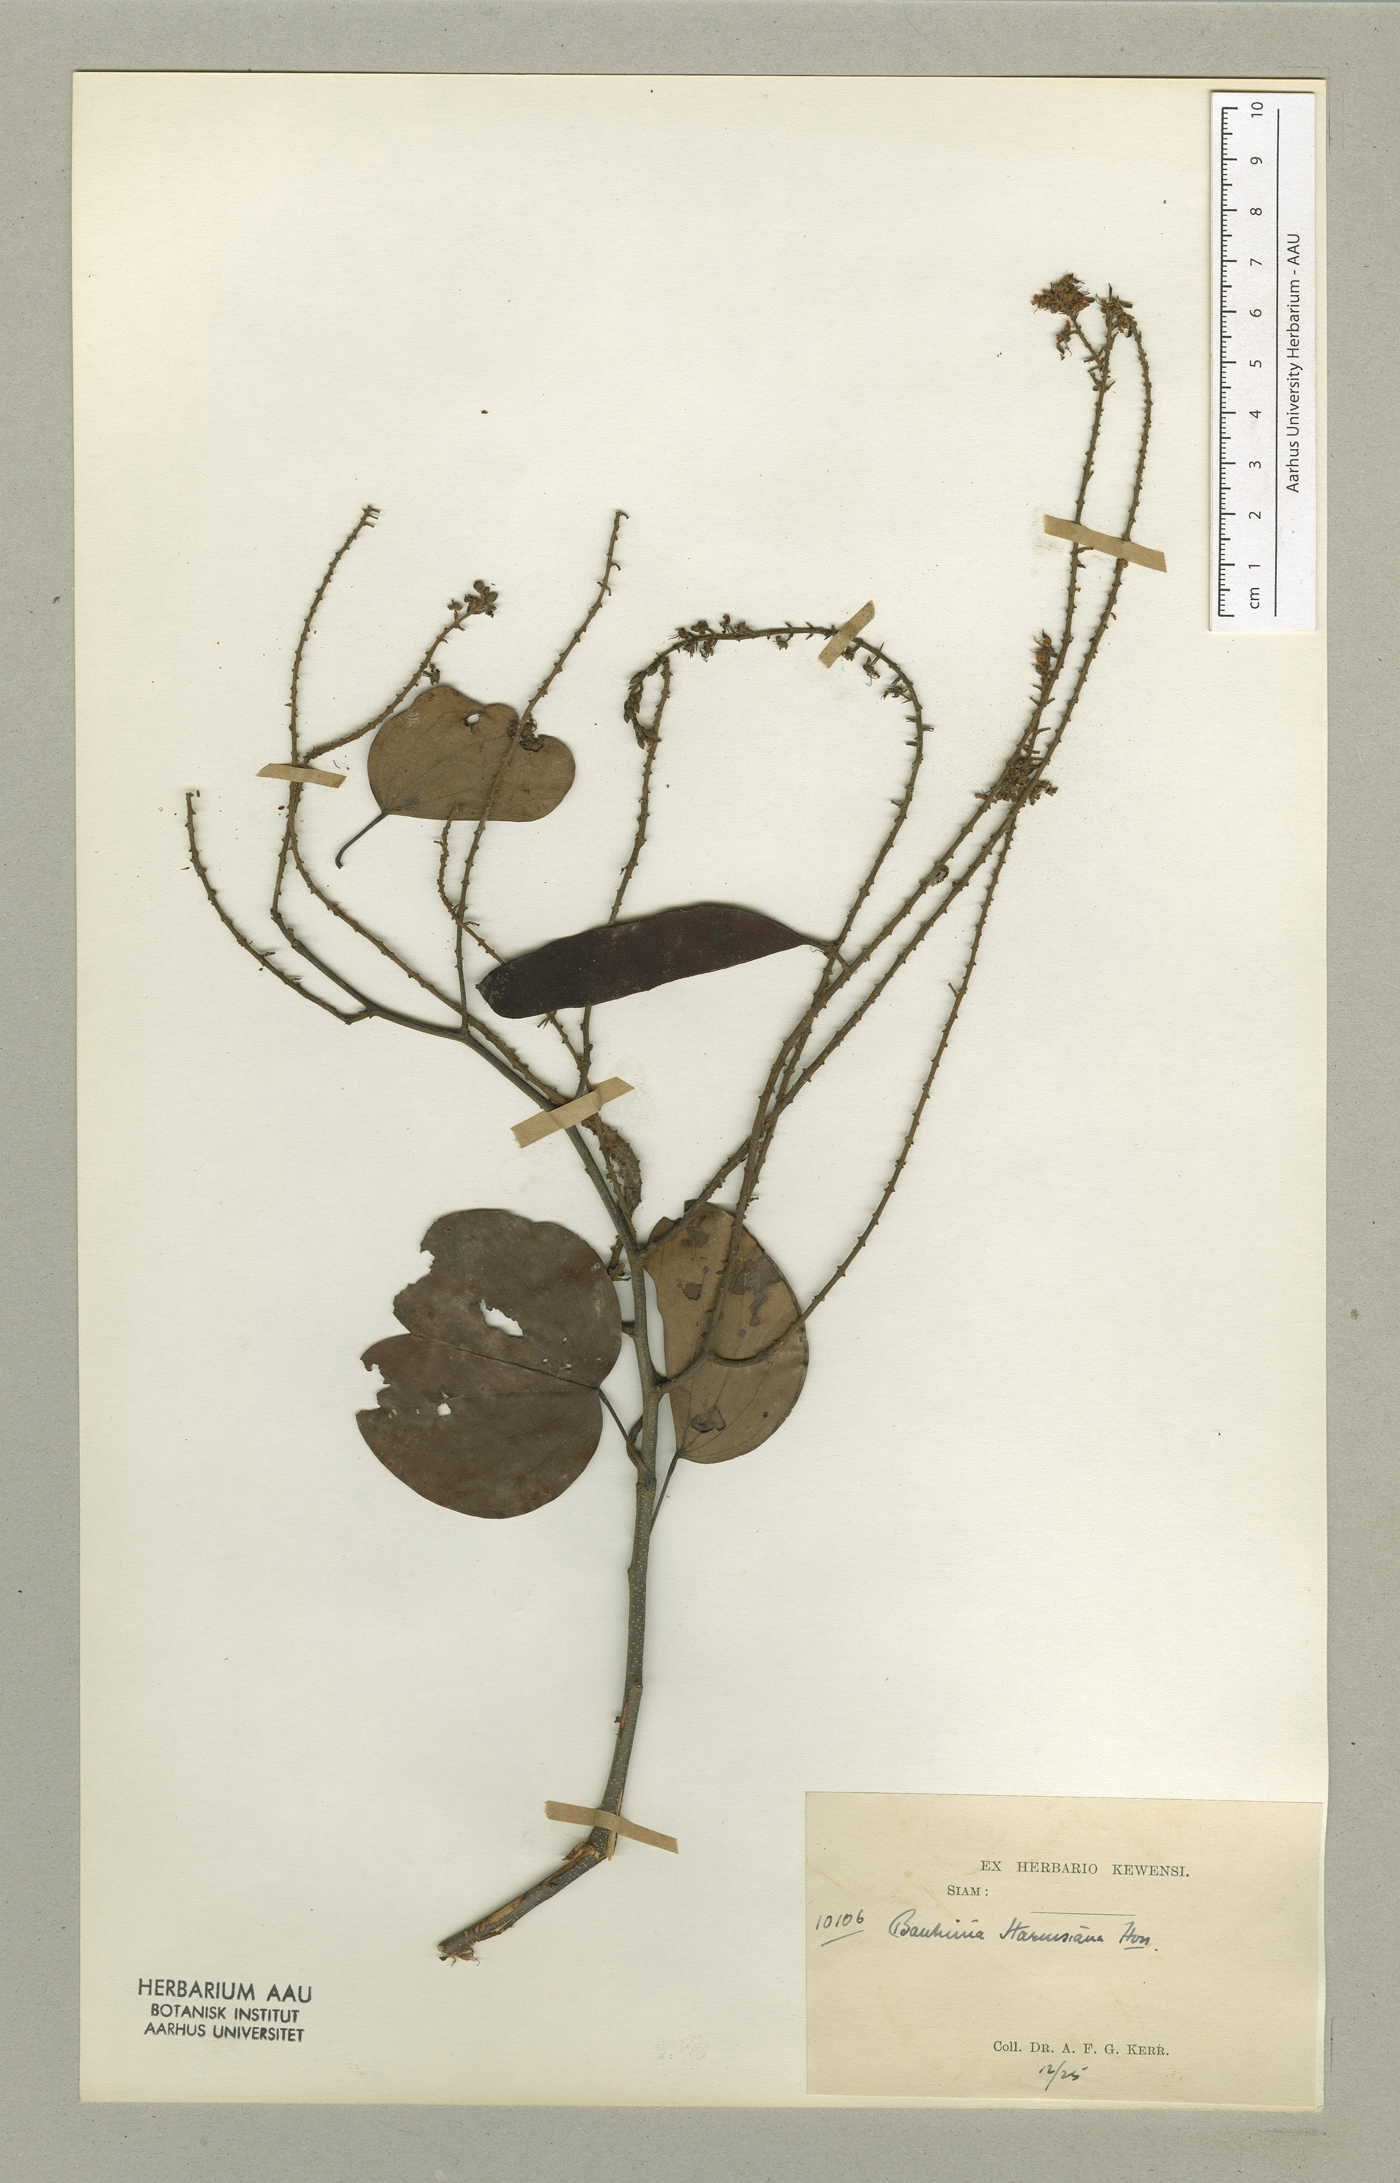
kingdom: Plantae
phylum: Tracheophyta
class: Magnoliopsida
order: Fabales
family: Fabaceae
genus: Phanera
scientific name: Phanera harmsiana
